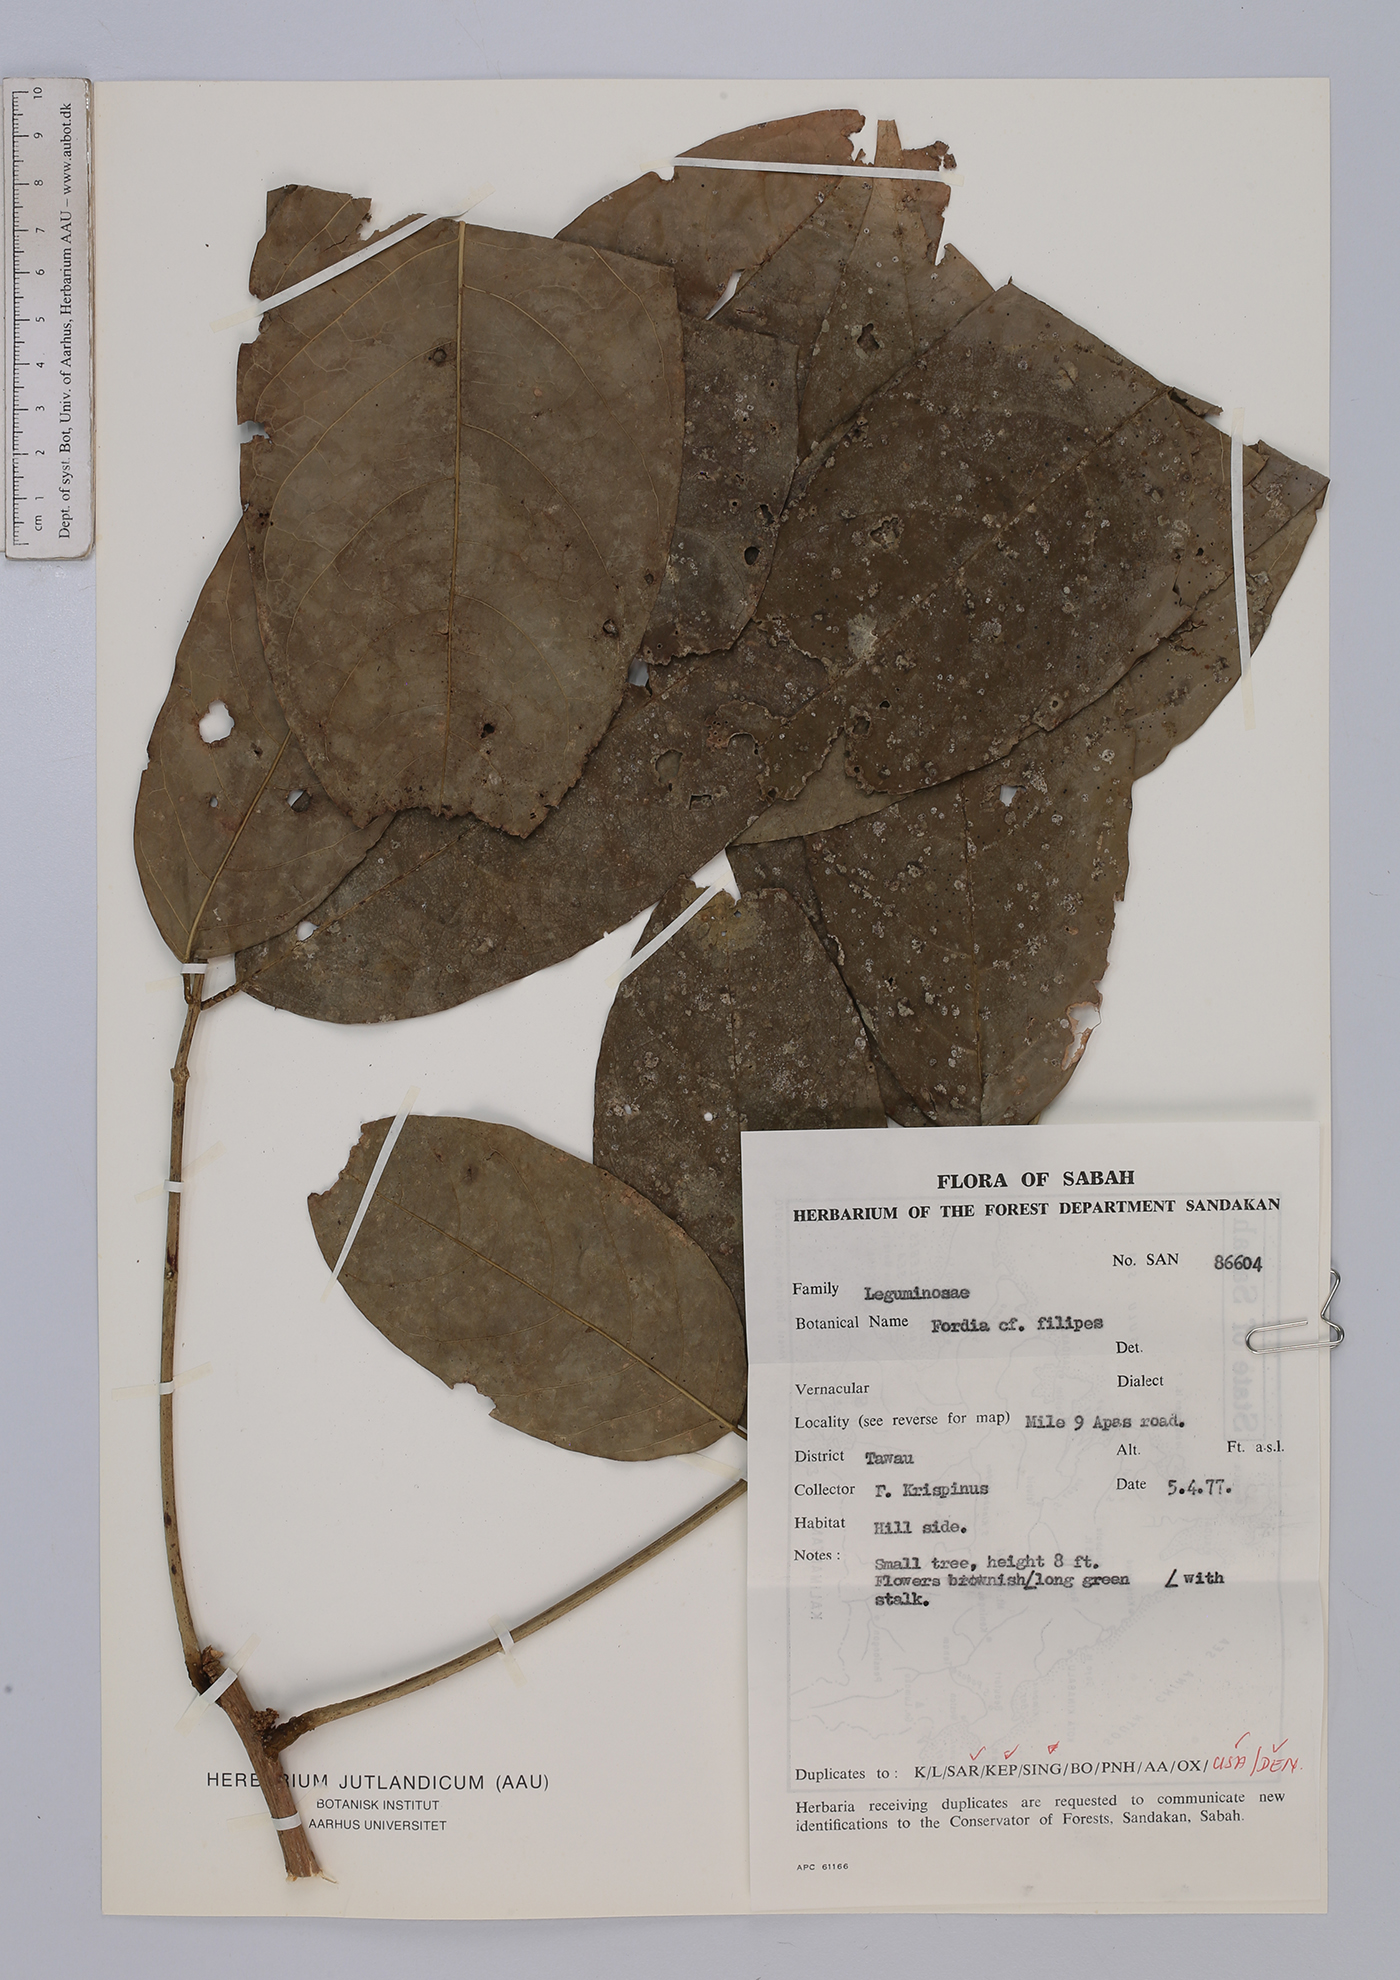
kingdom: Plantae
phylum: Tracheophyta
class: Magnoliopsida
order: Fabales
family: Fabaceae
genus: Fordia
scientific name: Fordia splendidissima
